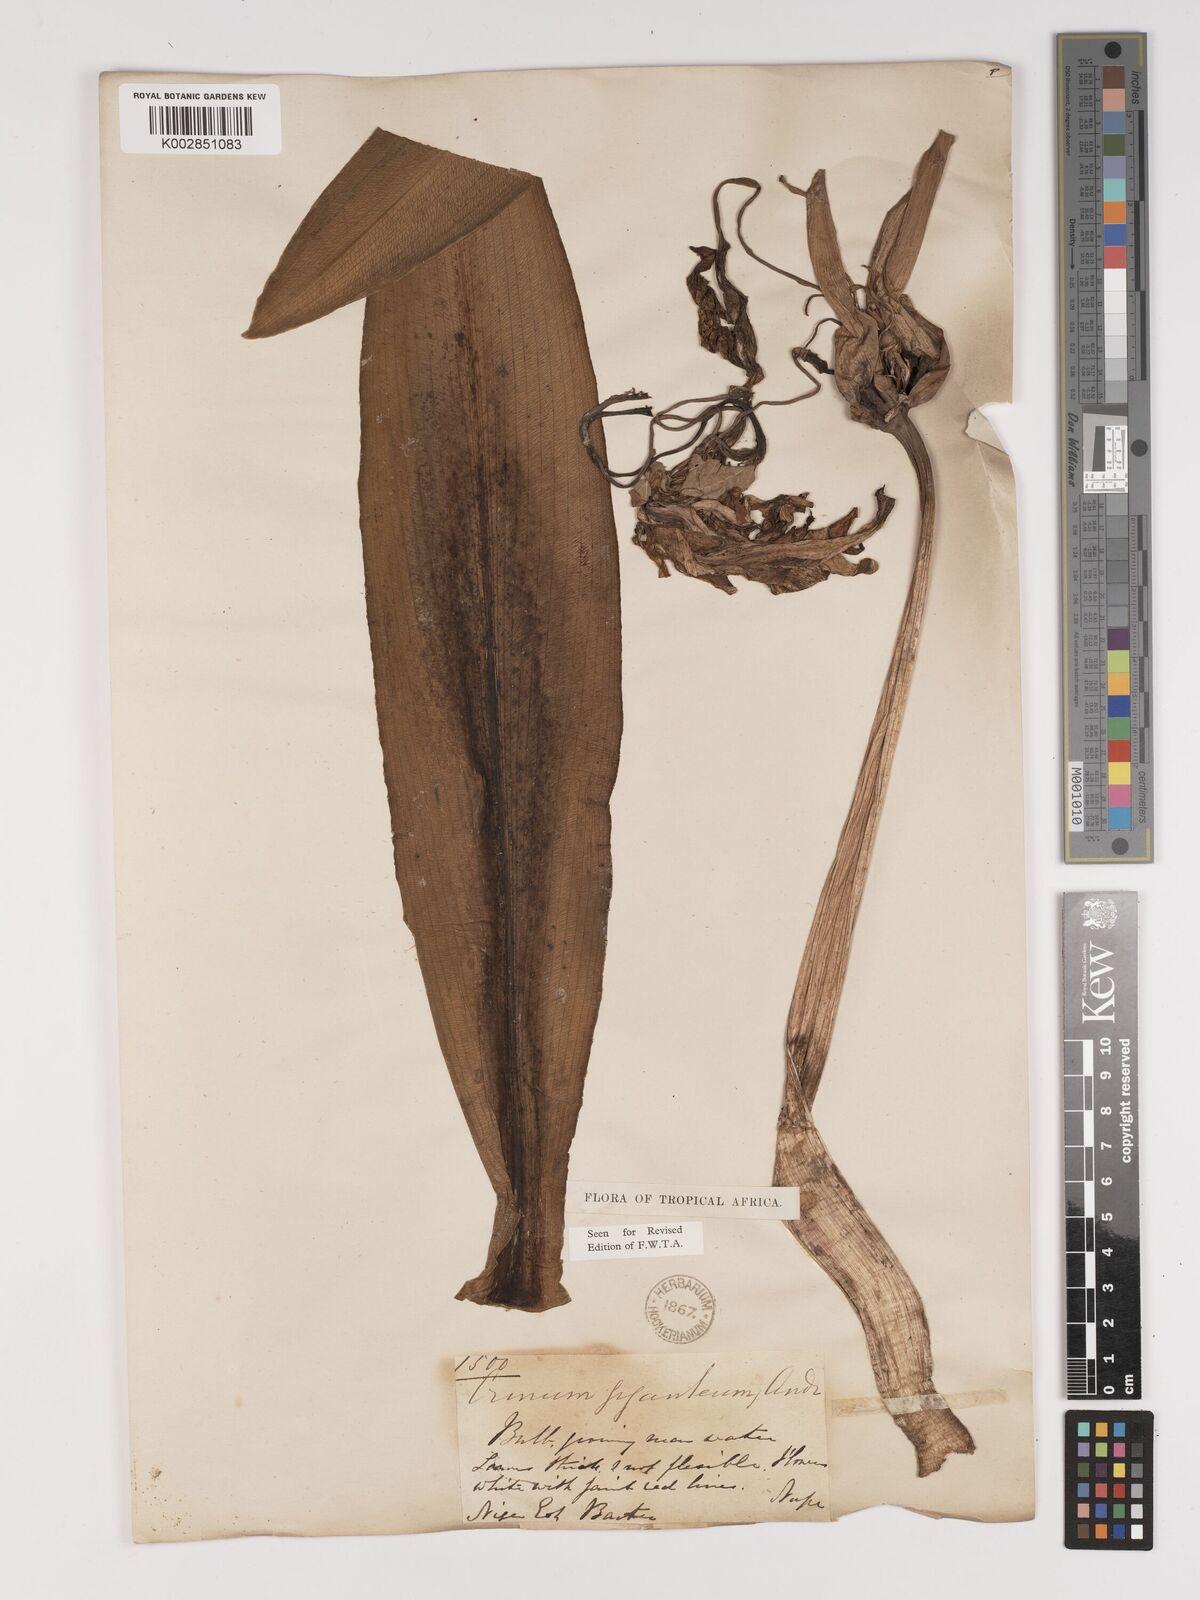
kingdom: Plantae
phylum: Tracheophyta
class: Liliopsida
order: Asparagales
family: Amaryllidaceae
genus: Crinum
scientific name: Crinum jagus
